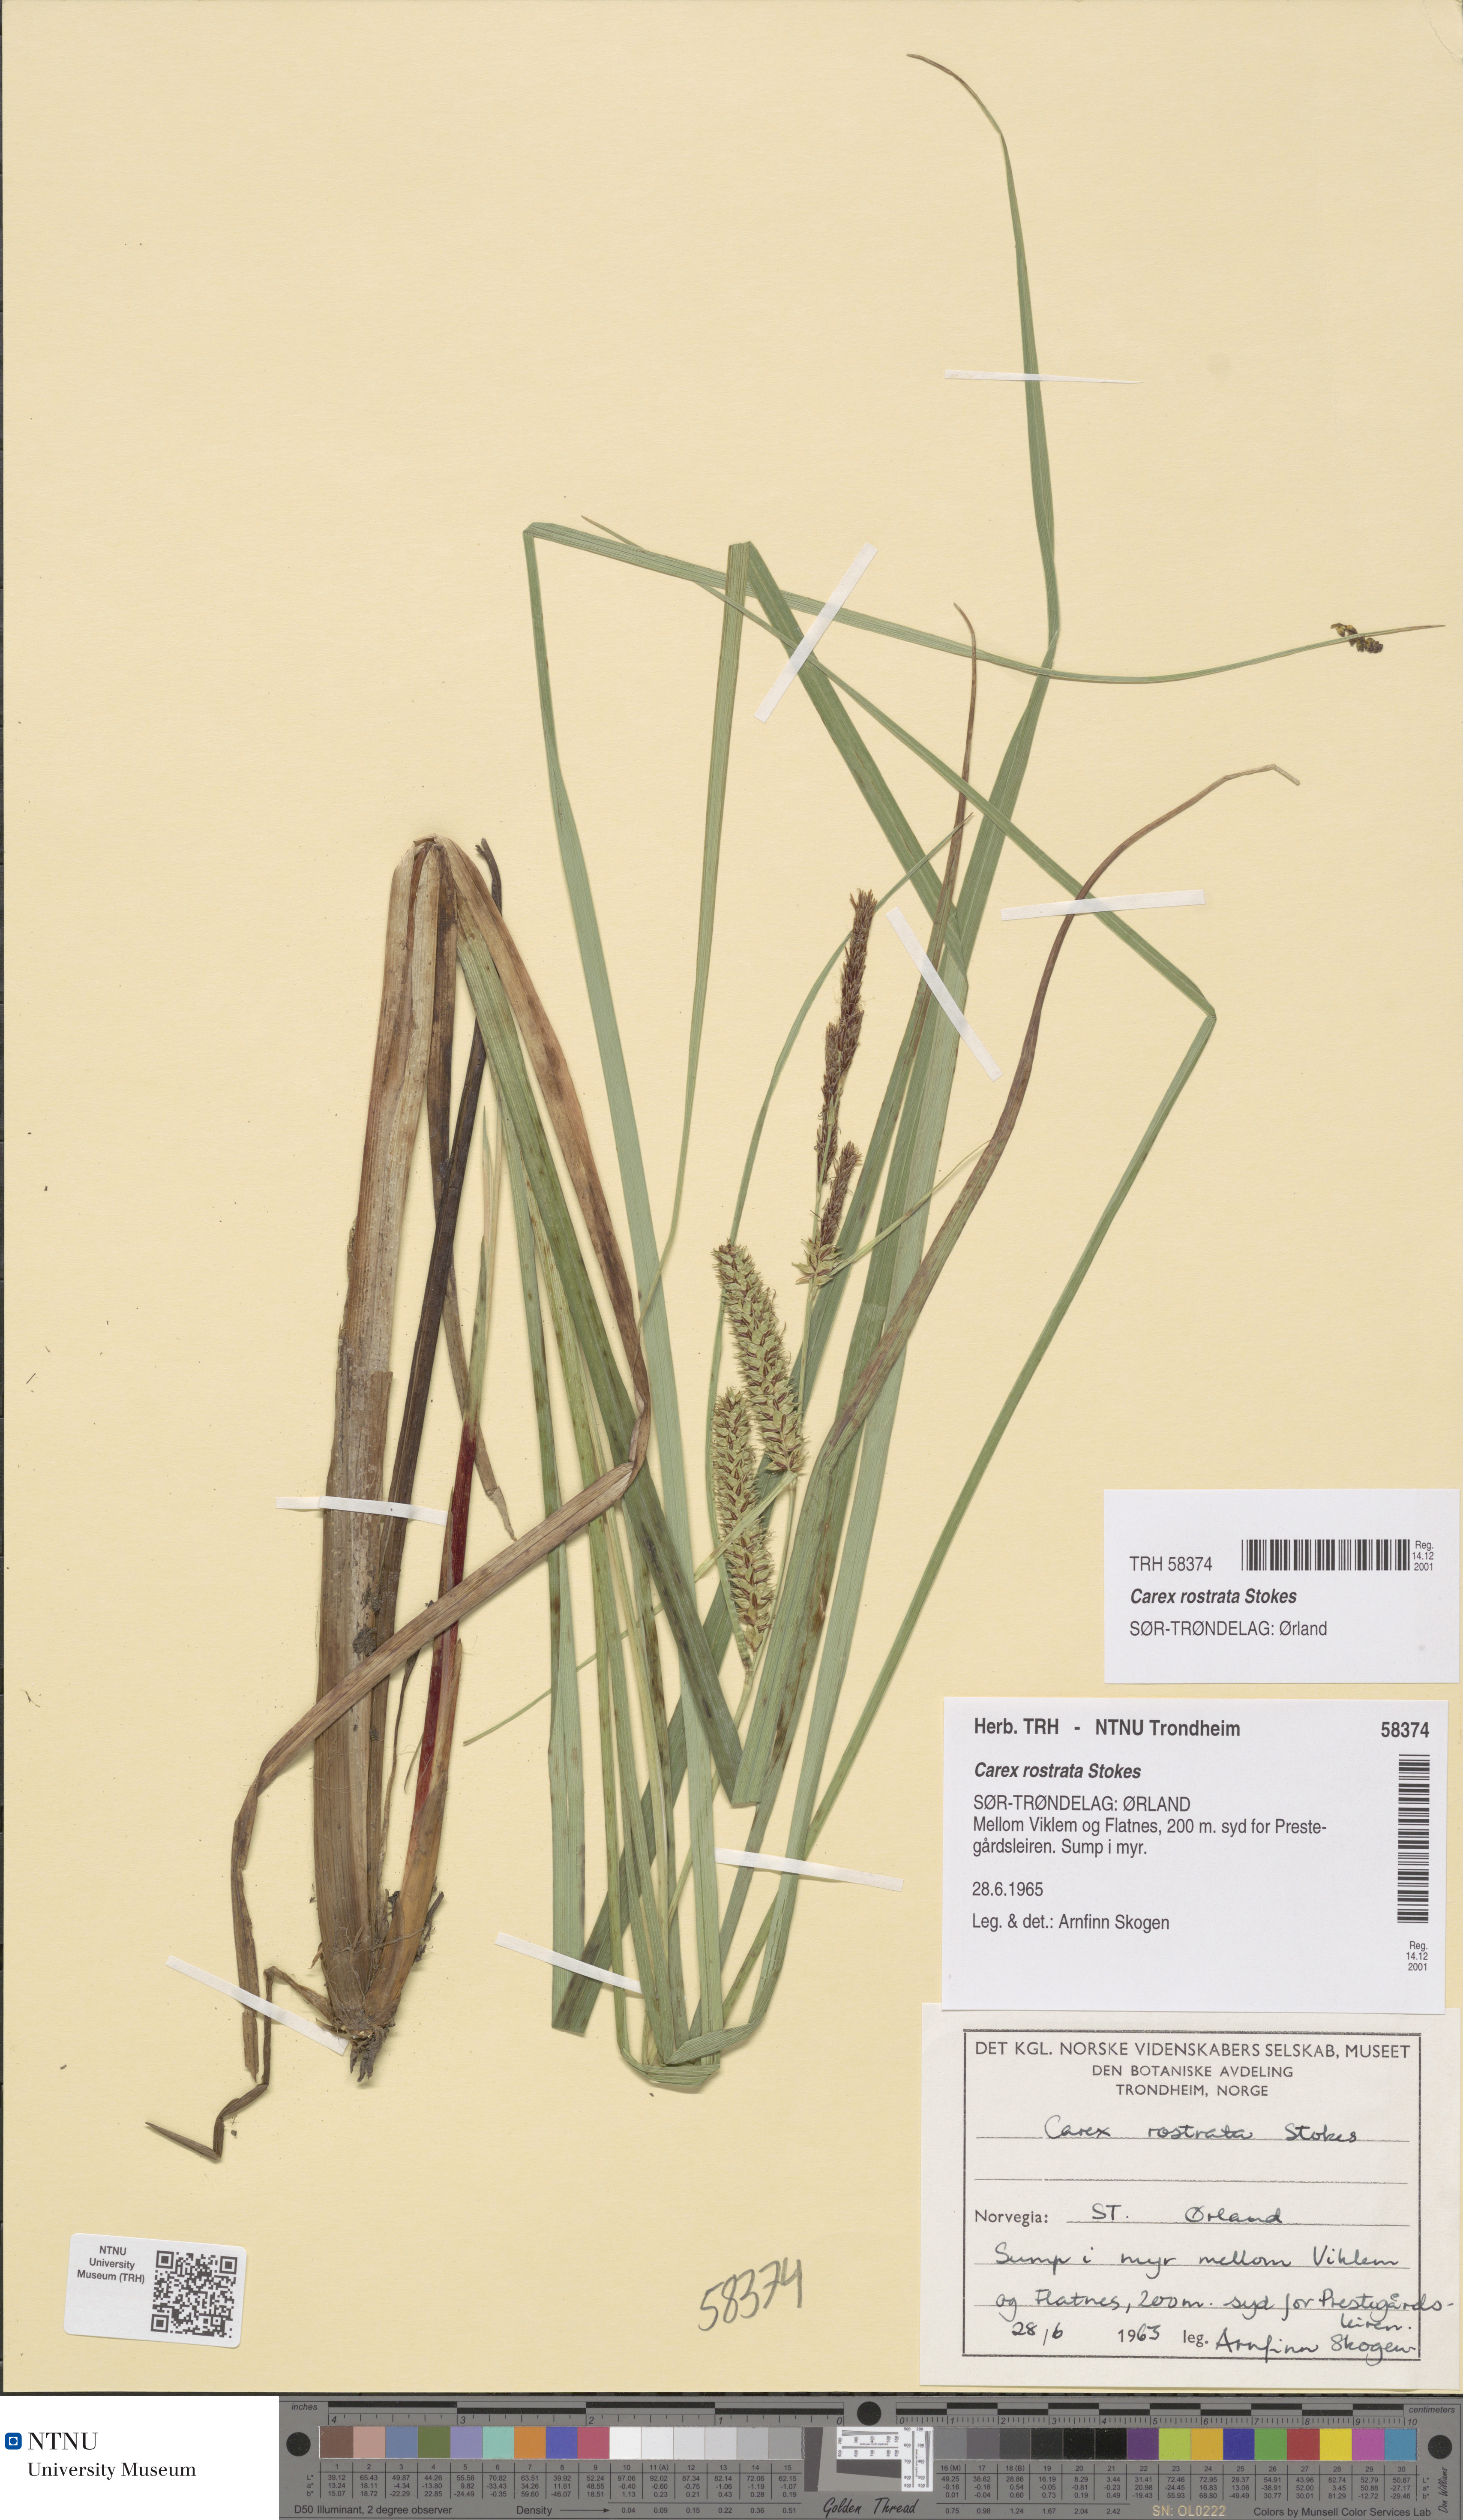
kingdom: Plantae
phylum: Tracheophyta
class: Liliopsida
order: Poales
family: Cyperaceae
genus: Carex
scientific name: Carex rostrata
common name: Bottle sedge
